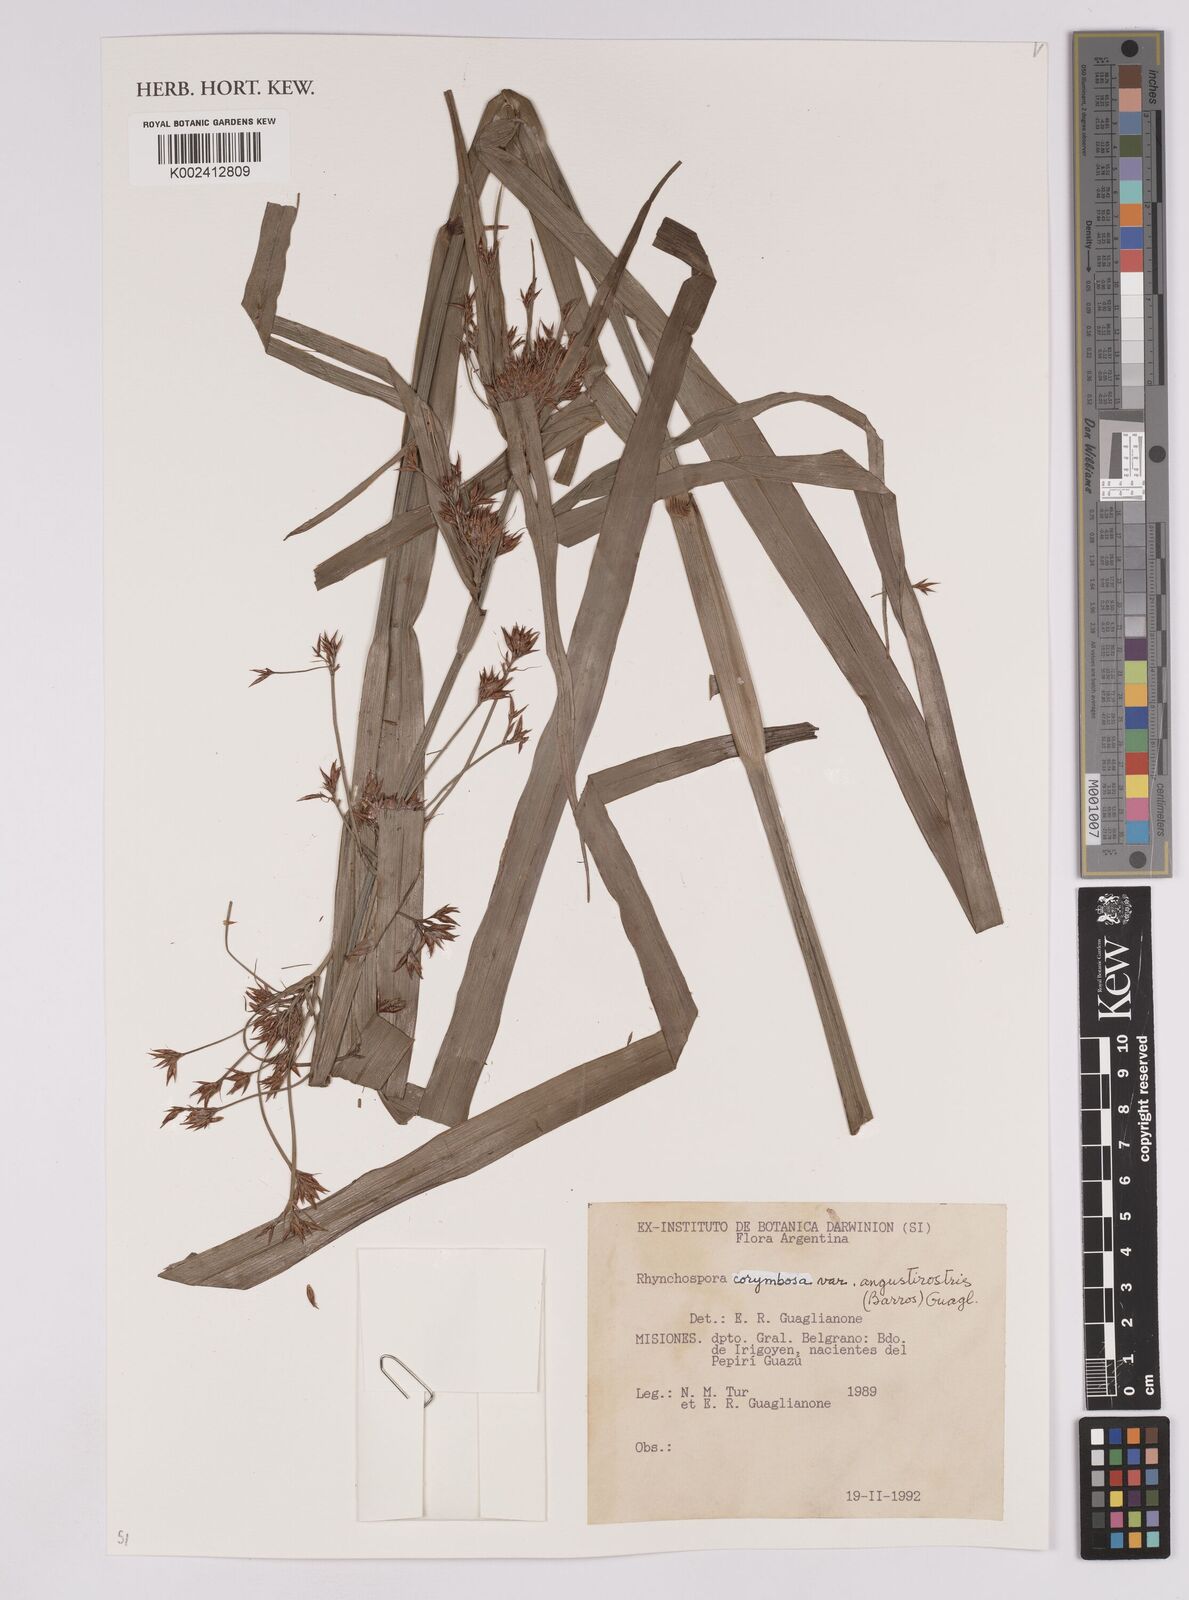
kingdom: Plantae
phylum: Tracheophyta
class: Liliopsida
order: Poales
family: Cyperaceae
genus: Rhynchospora
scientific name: Rhynchospora corymbosa
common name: Golden beak sedge
